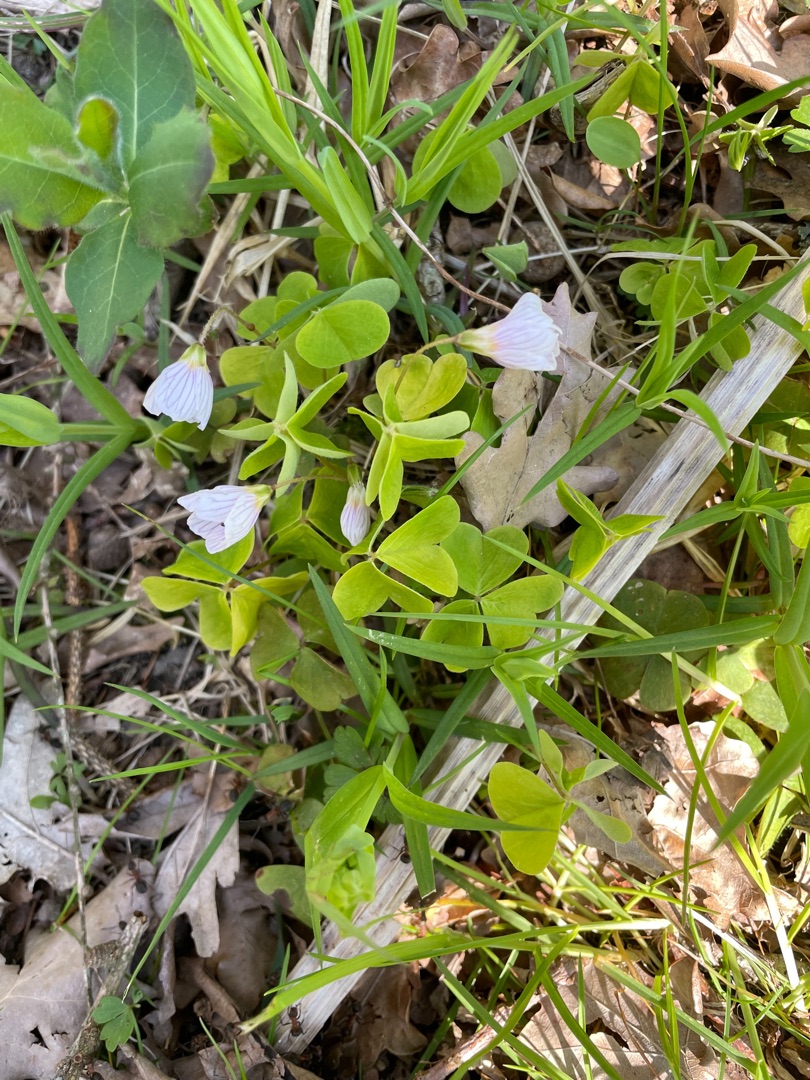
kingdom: Plantae
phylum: Tracheophyta
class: Magnoliopsida
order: Oxalidales
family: Oxalidaceae
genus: Oxalis
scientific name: Oxalis acetosella
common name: Skovsyre
